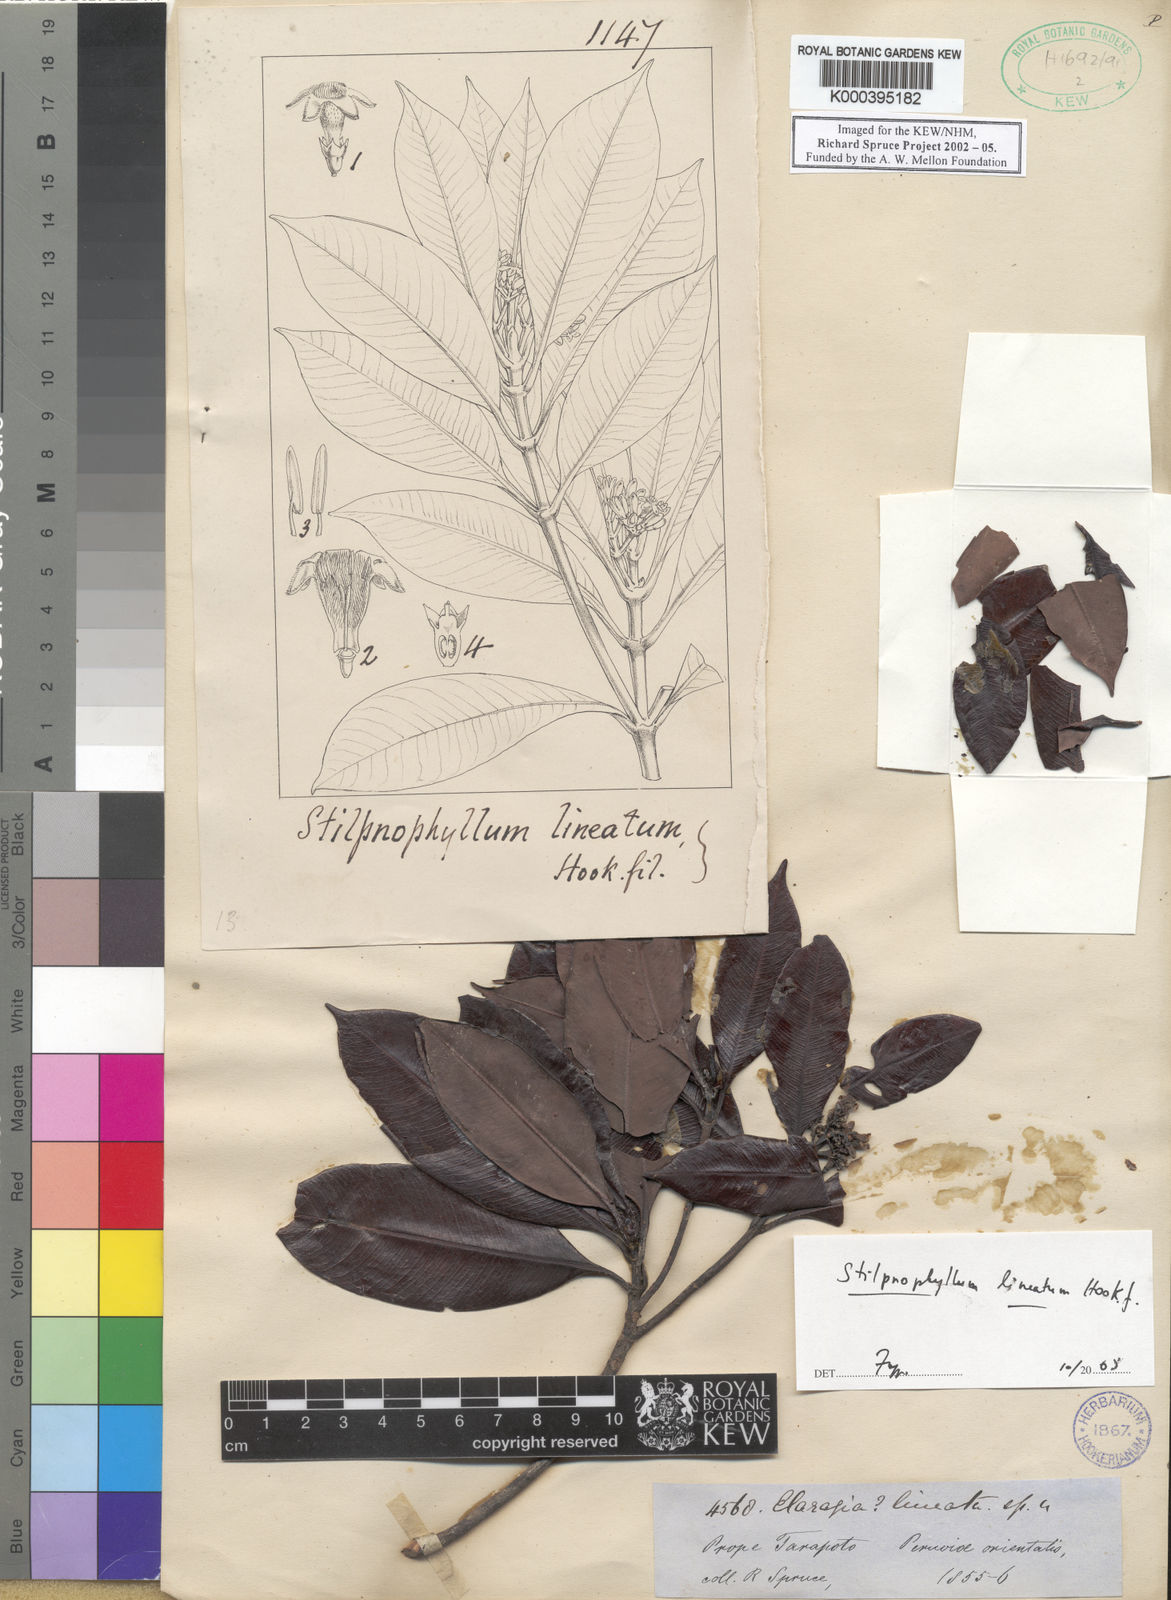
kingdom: Plantae
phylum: Tracheophyta
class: Magnoliopsida
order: Gentianales
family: Rubiaceae
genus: Stilpnophyllum
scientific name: Stilpnophyllum lineatum
